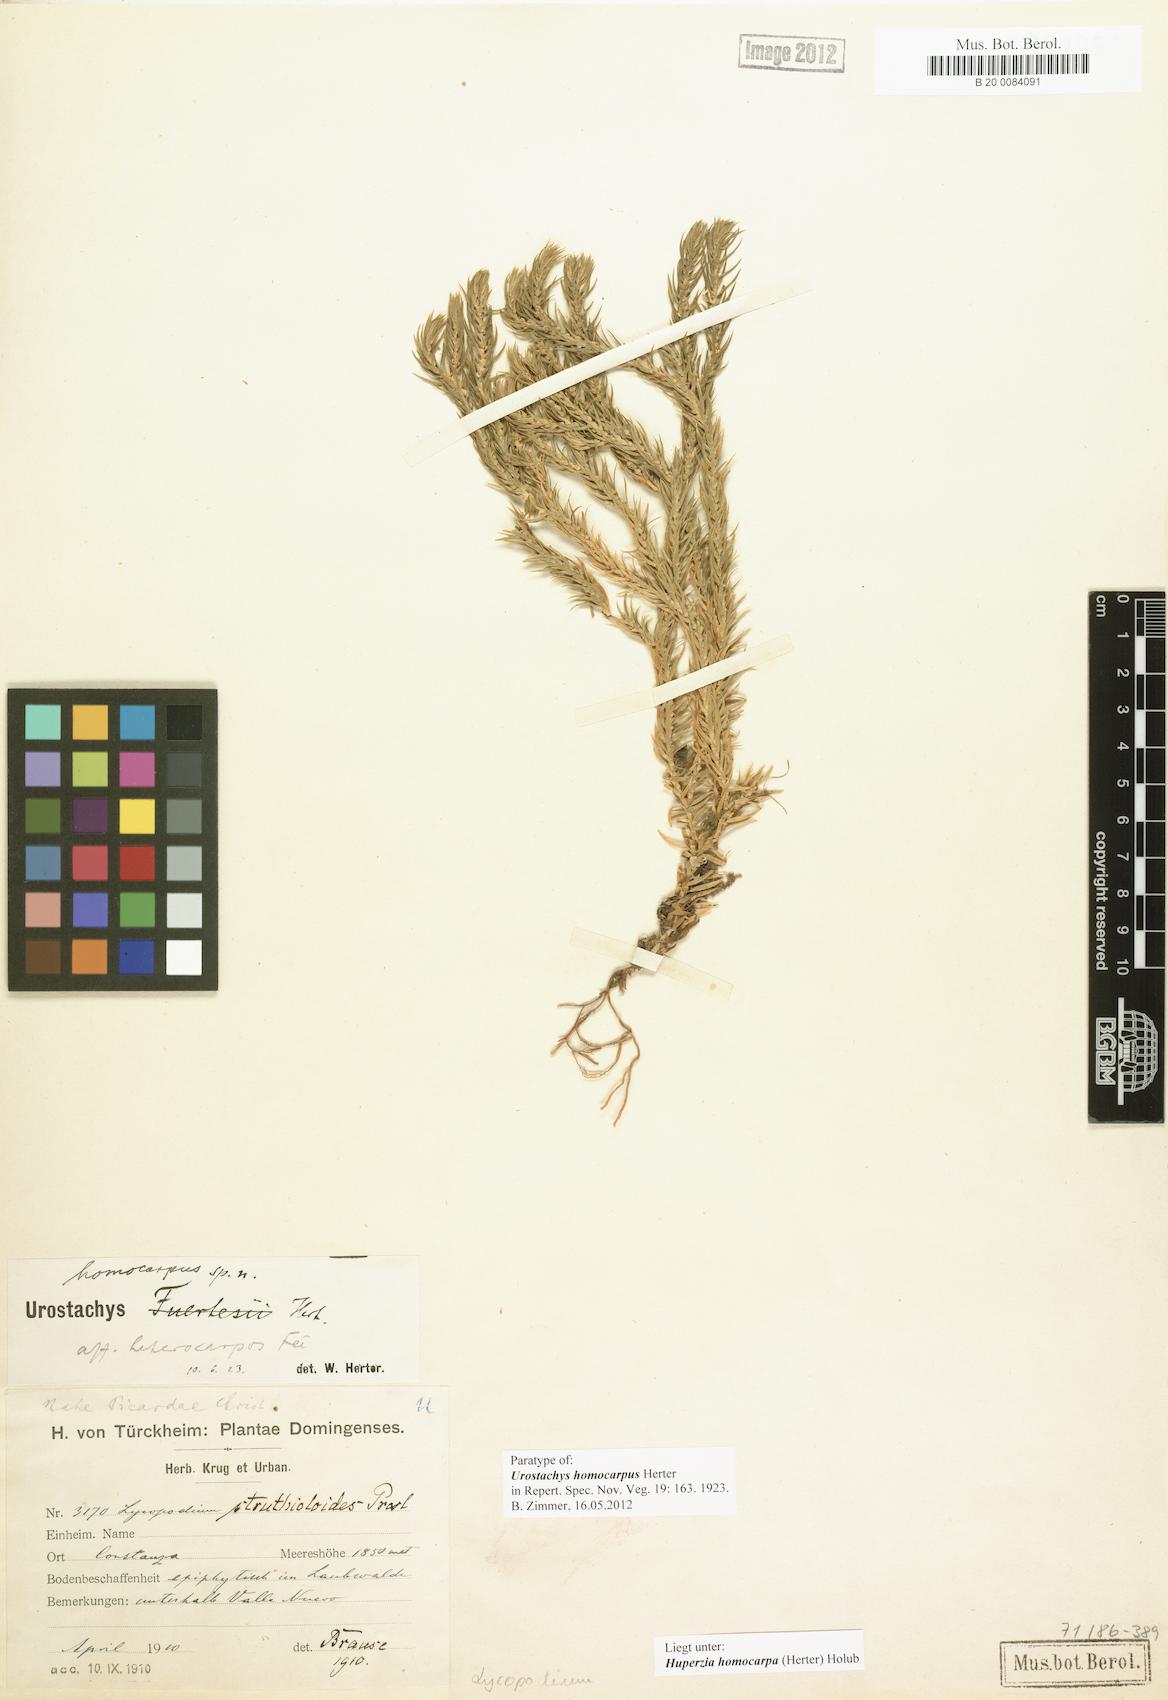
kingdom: Plantae
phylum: Tracheophyta
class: Lycopodiopsida
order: Lycopodiales
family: Lycopodiaceae
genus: Phlegmariurus
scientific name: Phlegmariurus homocarpus
